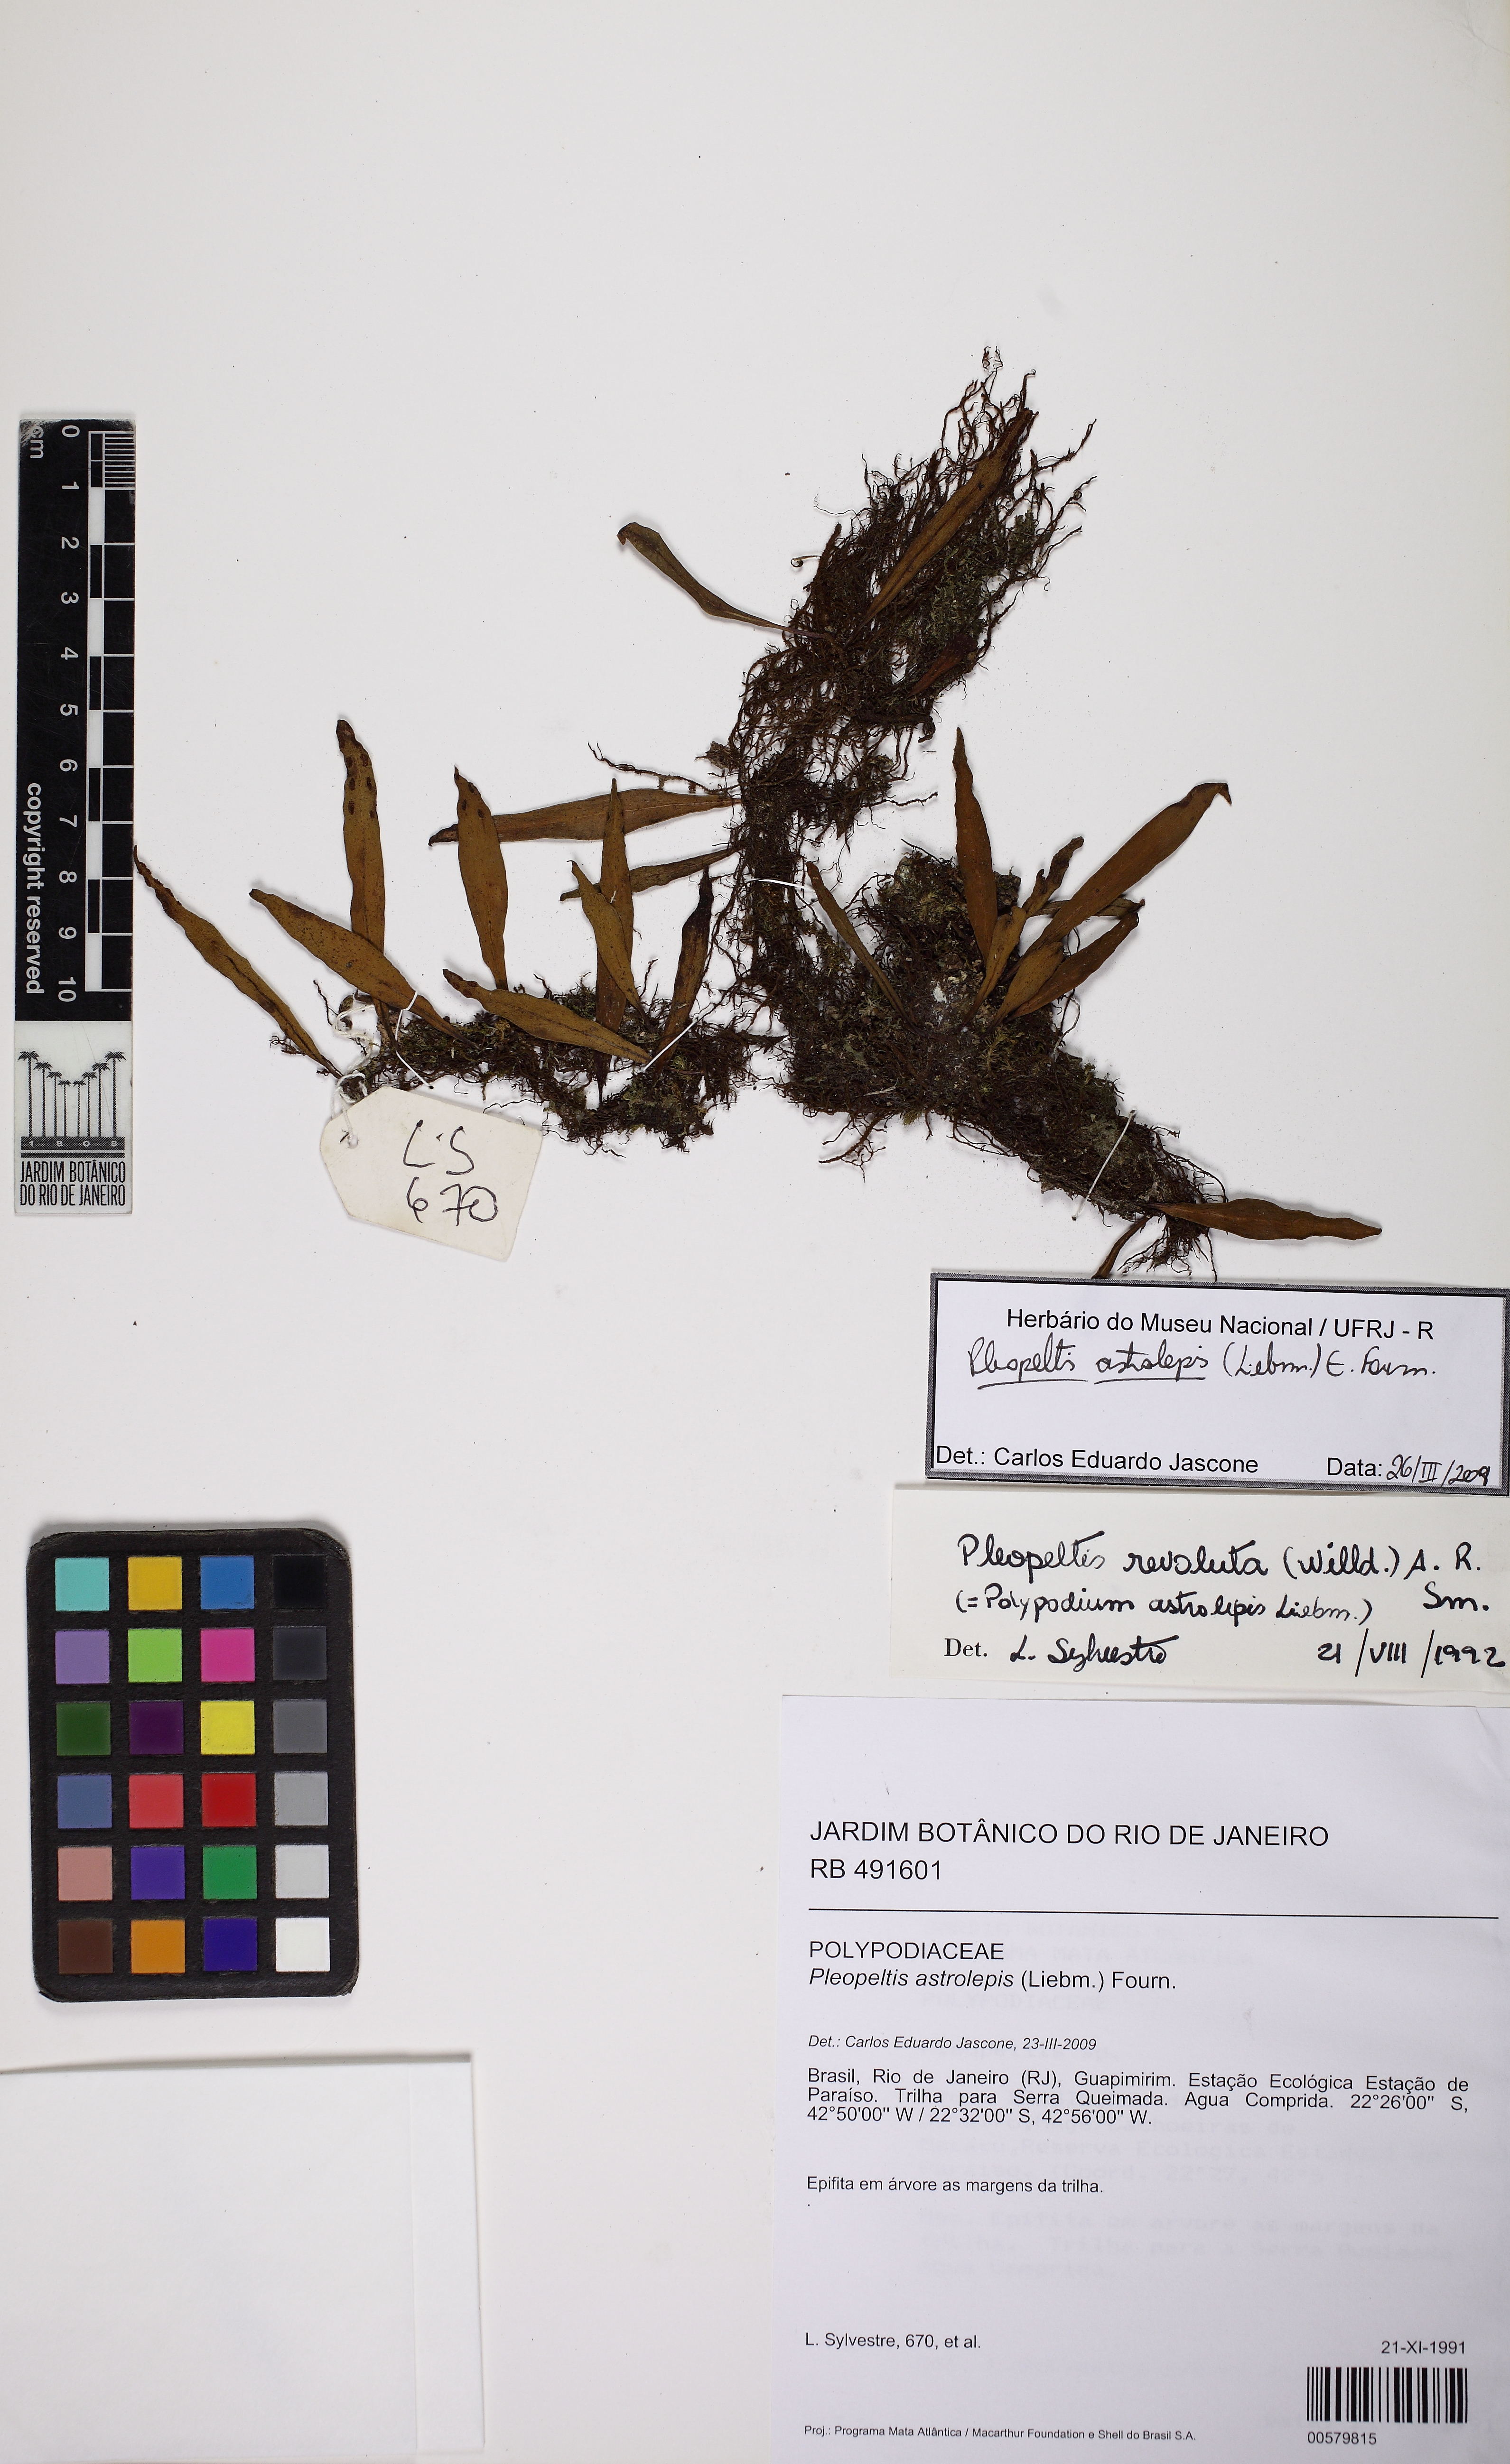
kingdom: Plantae
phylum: Tracheophyta
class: Polypodiopsida
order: Polypodiales
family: Polypodiaceae
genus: Pleopeltis
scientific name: Pleopeltis astrolepis
